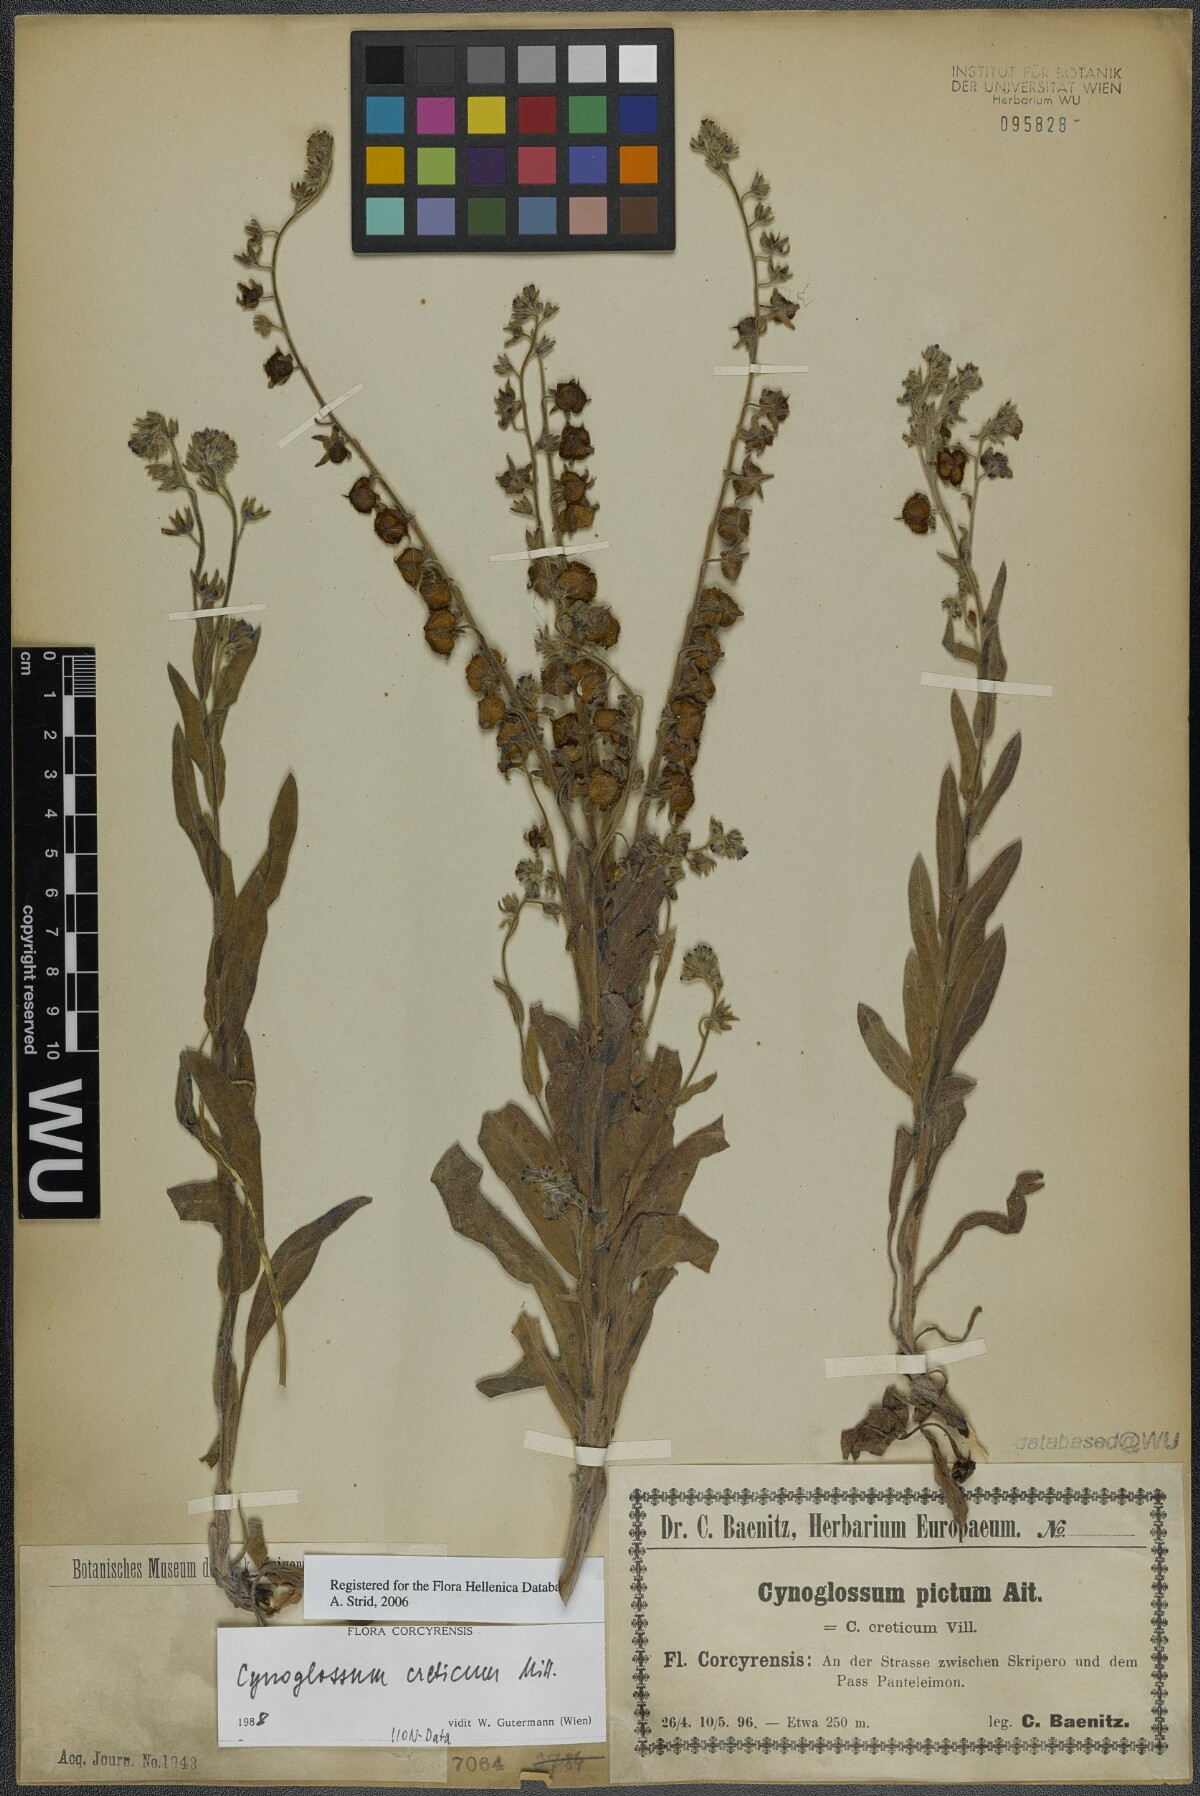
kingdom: Plantae
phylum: Tracheophyta
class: Magnoliopsida
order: Boraginales
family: Boraginaceae
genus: Cynoglossum
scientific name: Cynoglossum creticum
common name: Blue hound's tongue
